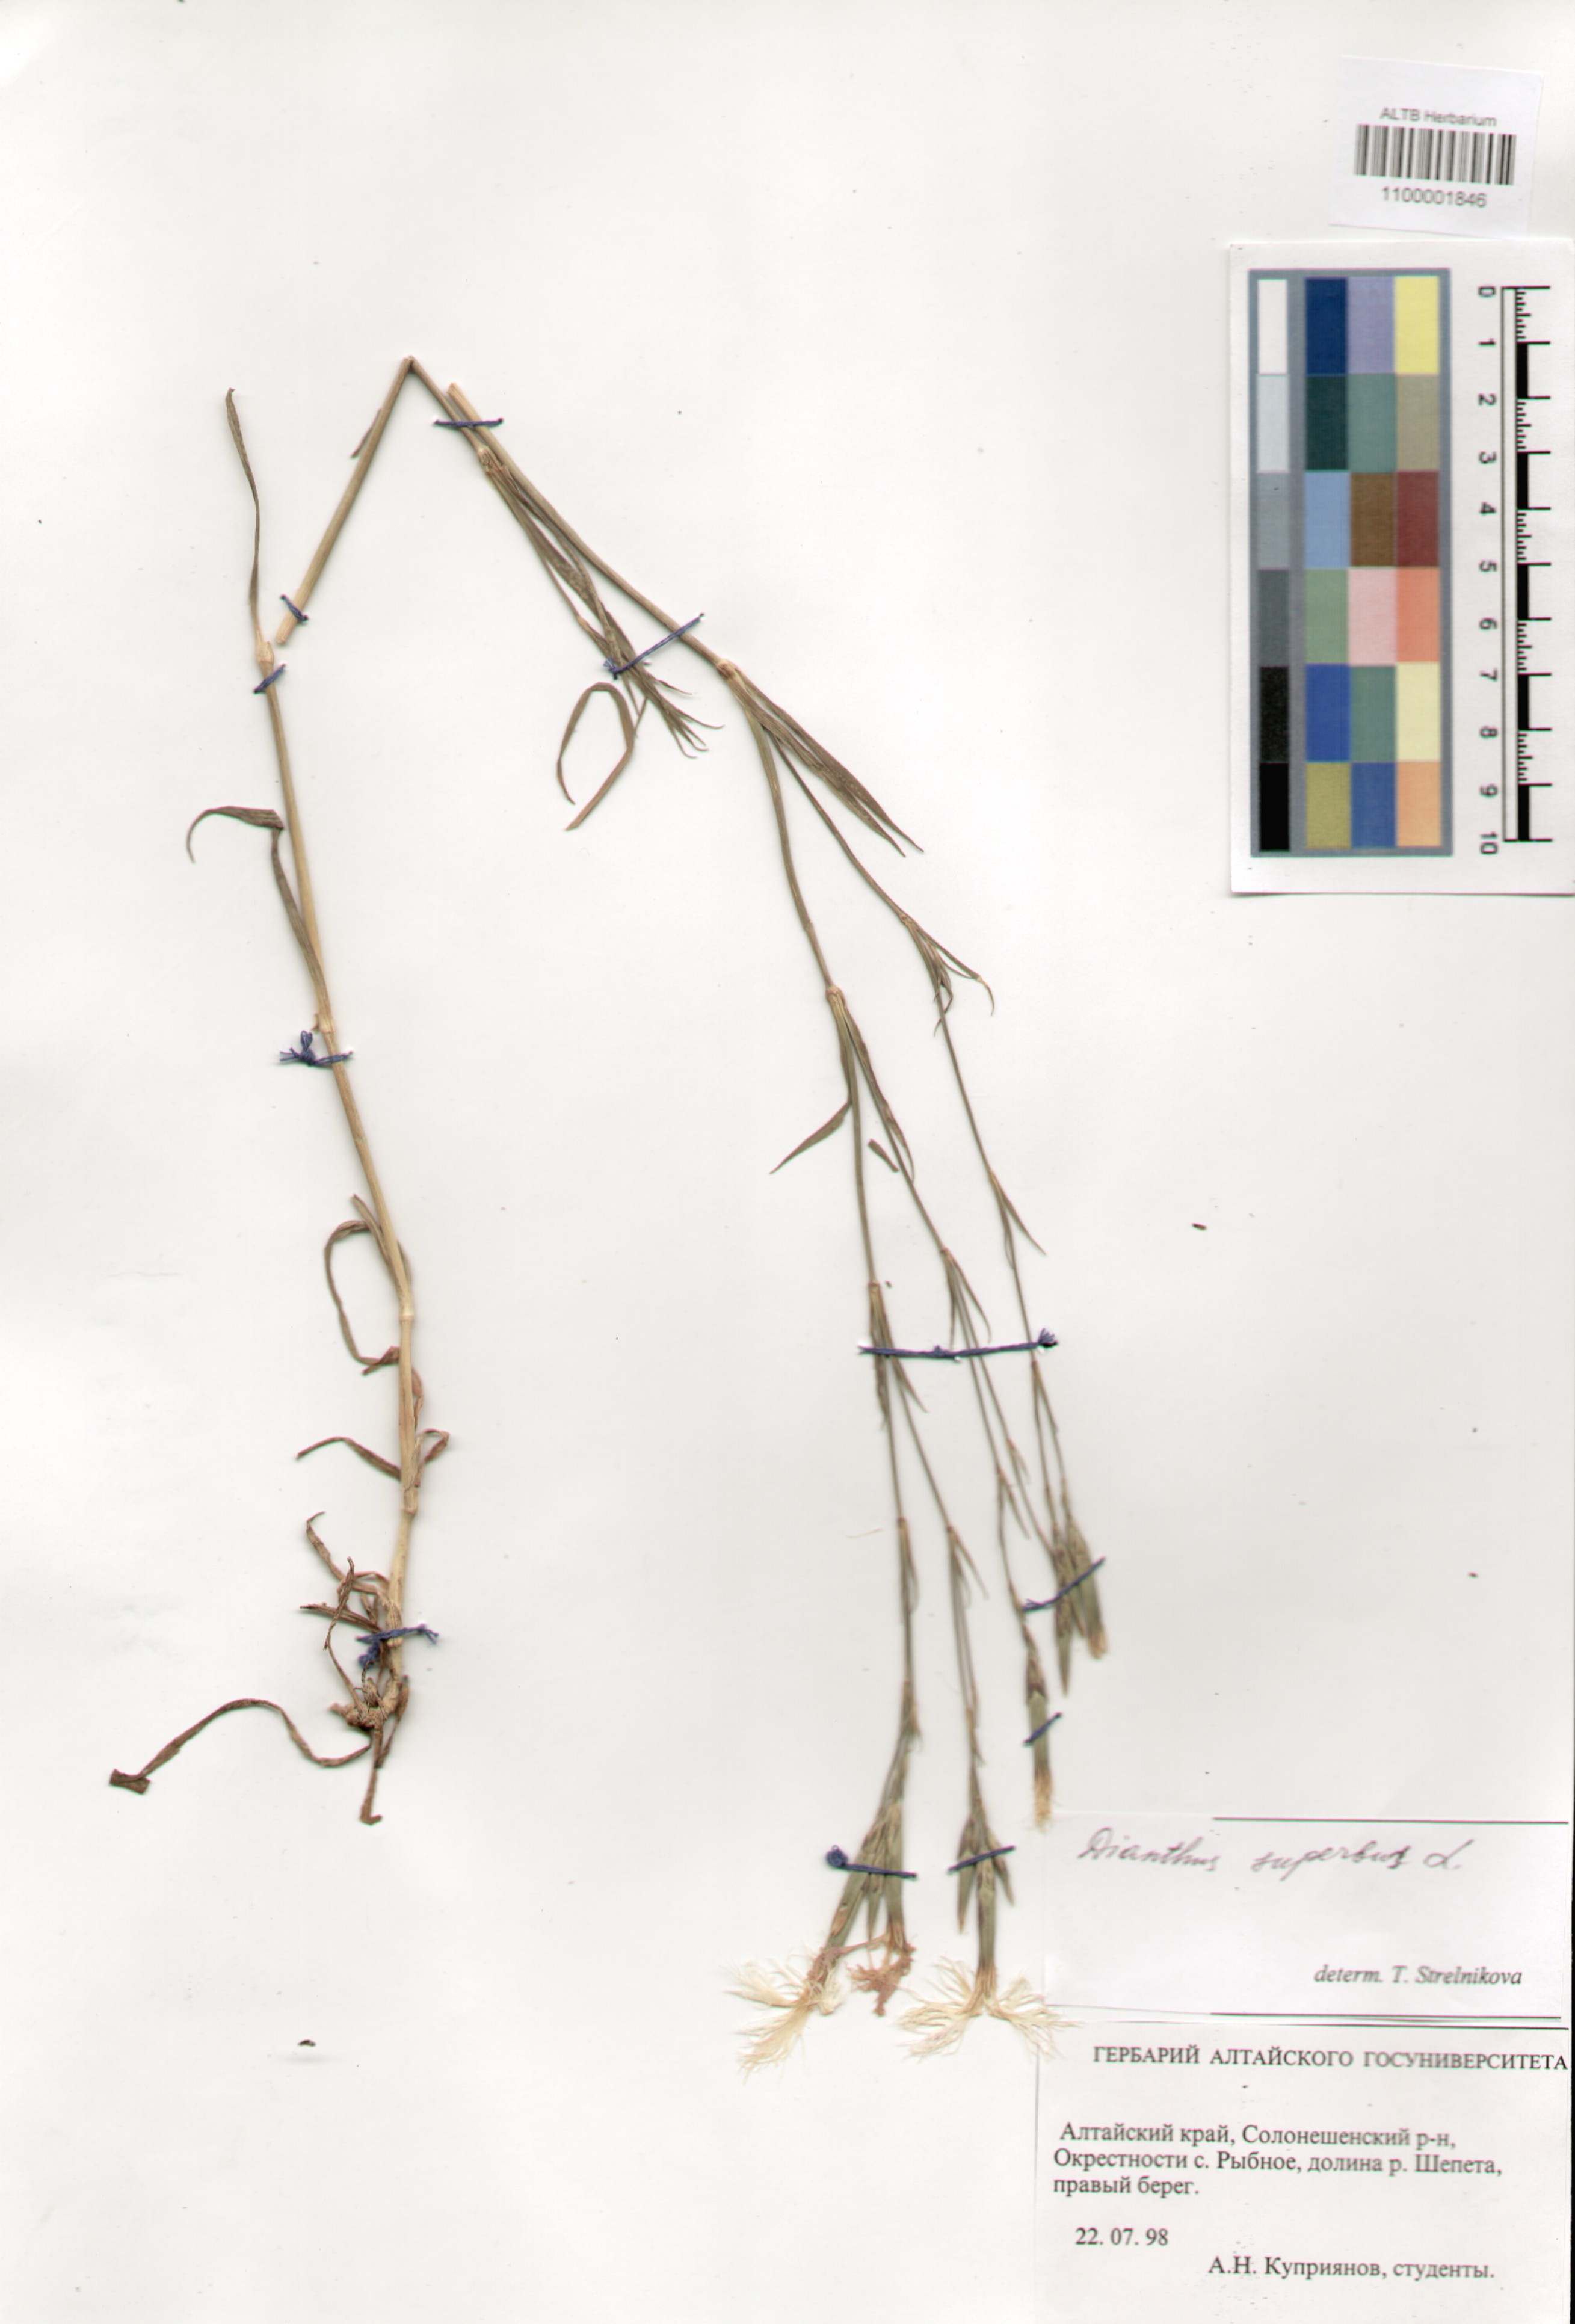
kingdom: Plantae
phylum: Tracheophyta
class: Magnoliopsida
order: Caryophyllales
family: Caryophyllaceae
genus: Dianthus
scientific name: Dianthus superbus
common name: Fringed pink
